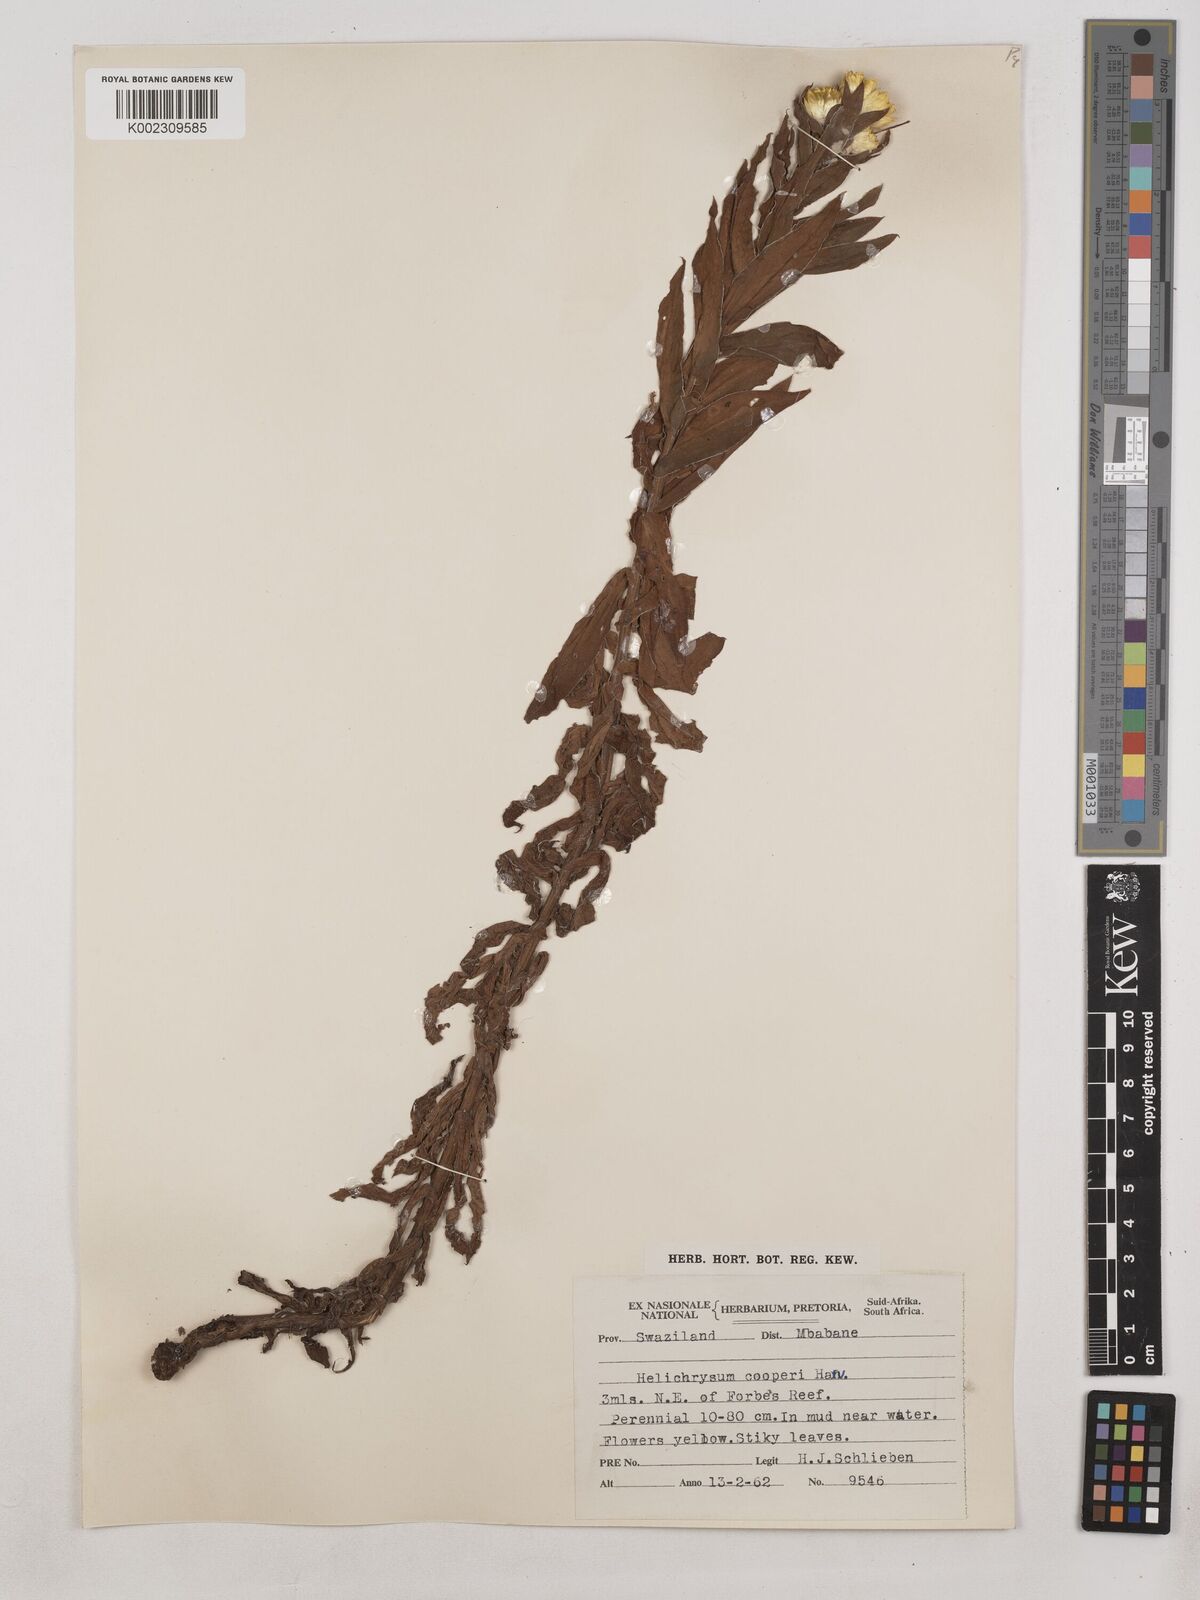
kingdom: Plantae
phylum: Tracheophyta
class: Magnoliopsida
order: Asterales
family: Asteraceae
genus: Helichrysum
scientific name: Helichrysum cooperi
